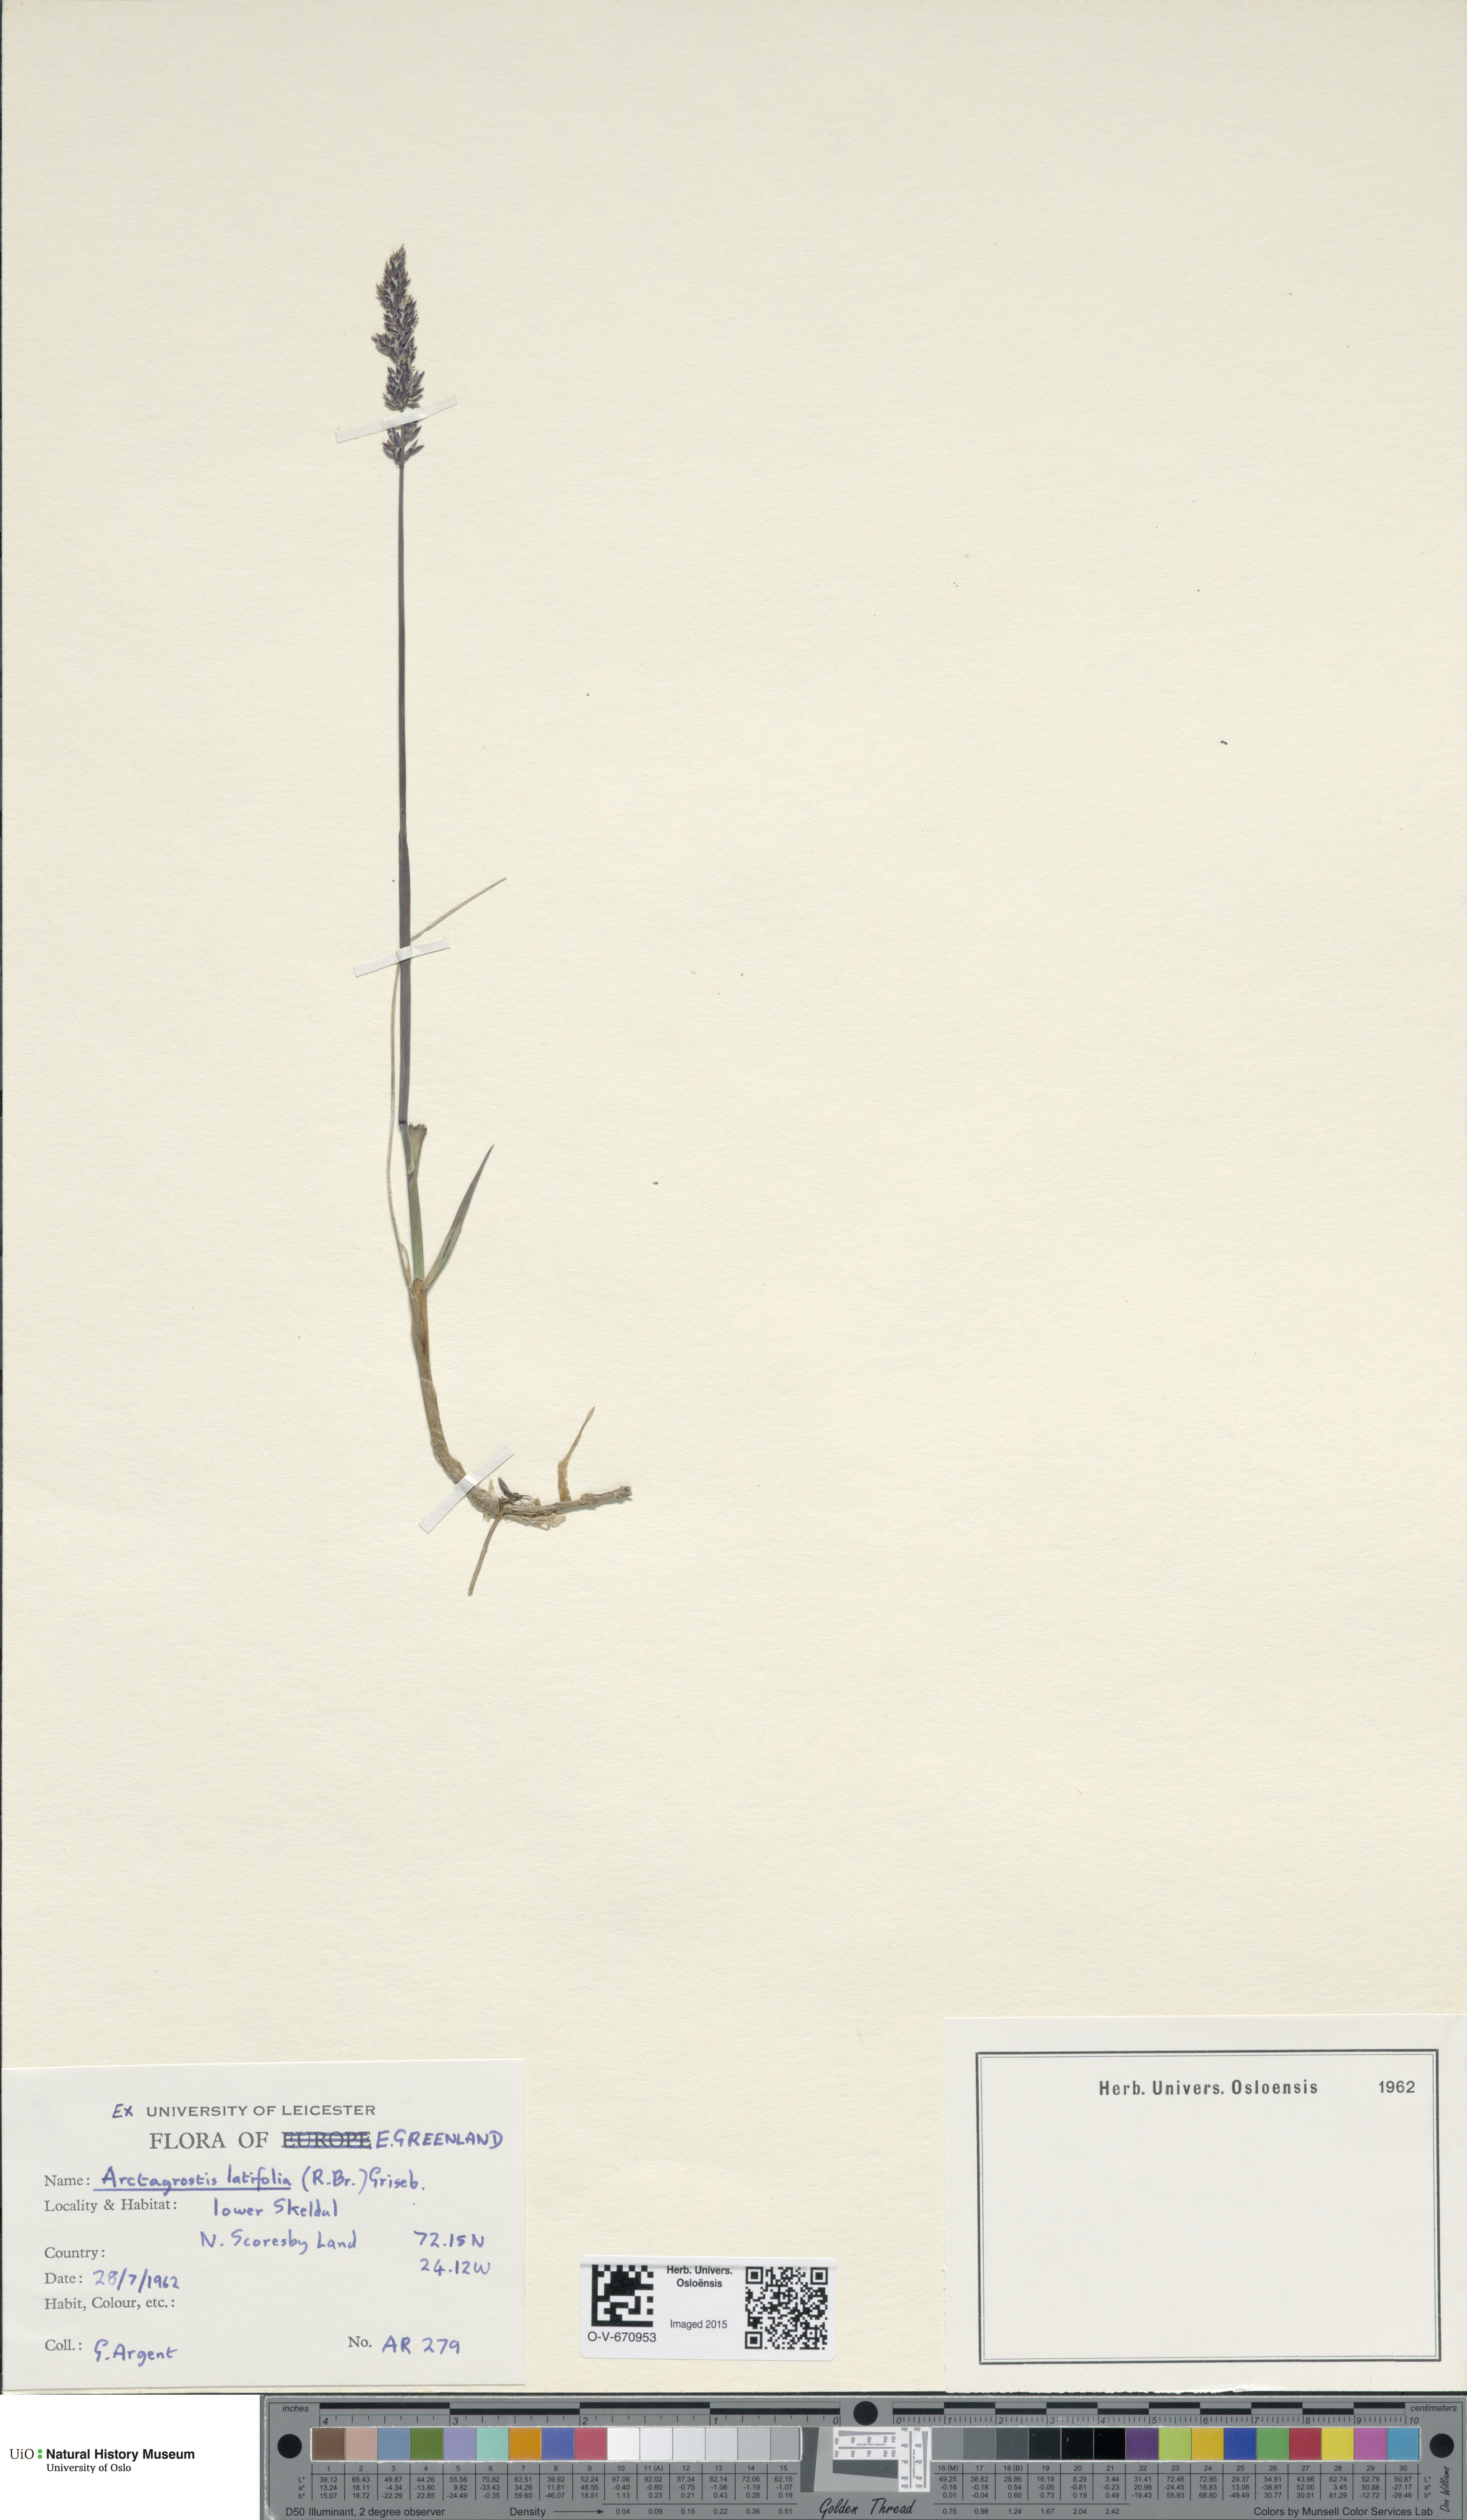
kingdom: Plantae
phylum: Tracheophyta
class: Liliopsida
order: Poales
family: Poaceae
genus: Arctagrostis
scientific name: Arctagrostis latifolia
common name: Arctic grass
